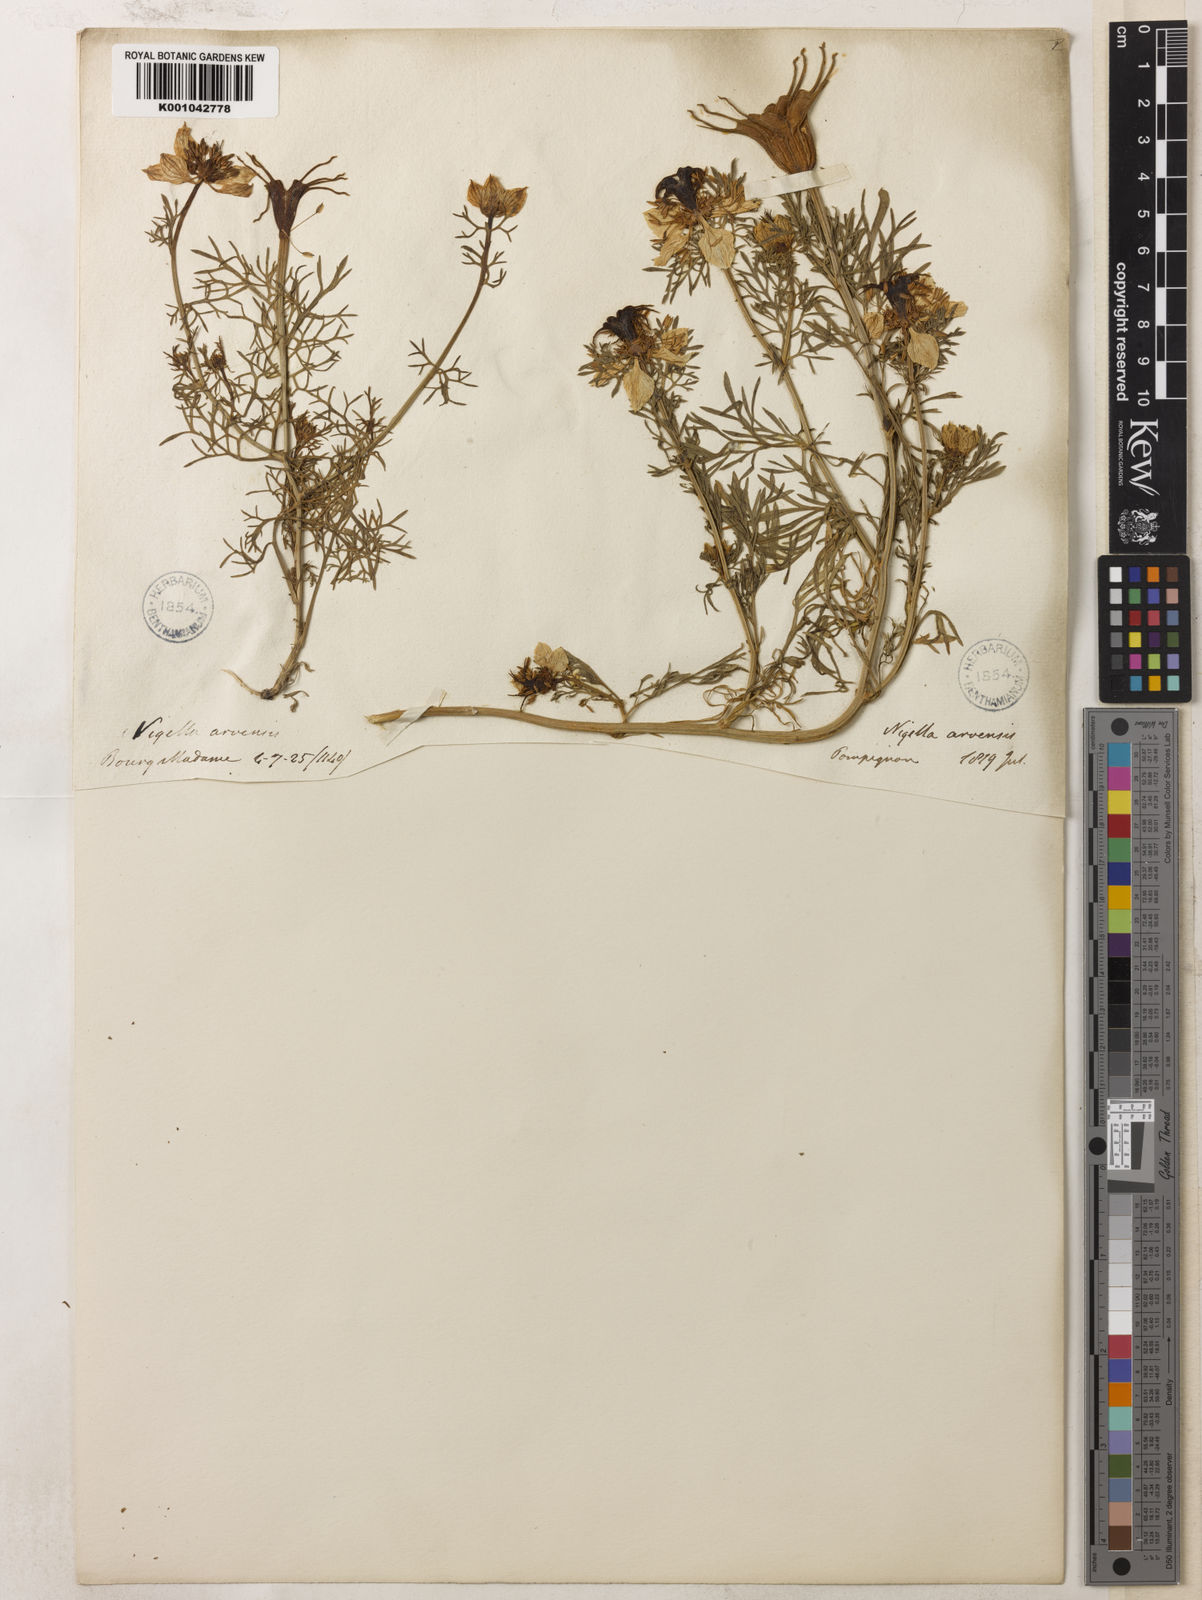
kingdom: Plantae
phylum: Tracheophyta
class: Magnoliopsida
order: Ranunculales
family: Ranunculaceae
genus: Nigella
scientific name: Nigella hispanica
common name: Fennel-flower
